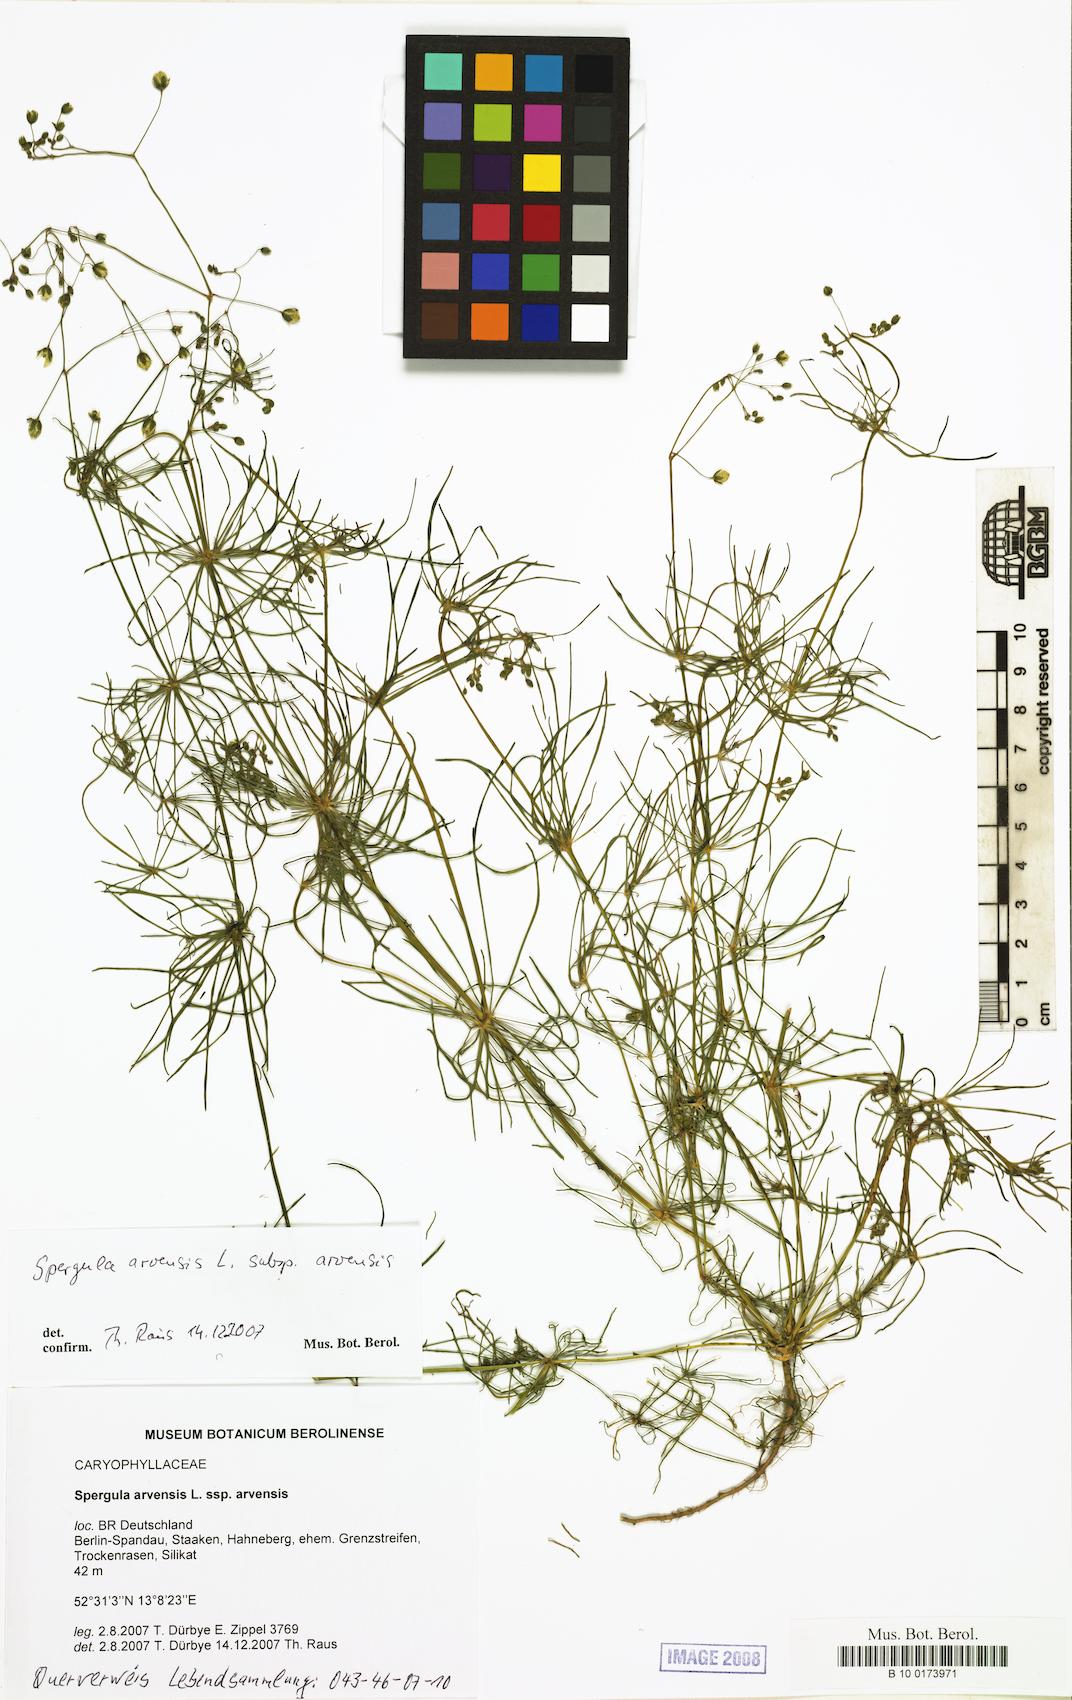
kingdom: Plantae
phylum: Tracheophyta
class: Magnoliopsida
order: Caryophyllales
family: Caryophyllaceae
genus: Spergula
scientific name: Spergula arvensis
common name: Corn spurrey
